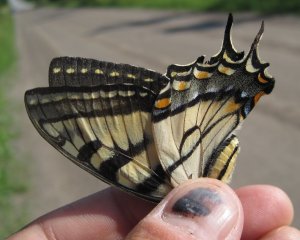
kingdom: Animalia
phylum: Arthropoda
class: Insecta
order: Lepidoptera
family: Papilionidae
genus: Pterourus
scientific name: Pterourus glaucus
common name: Eastern Tiger Swallowtail
